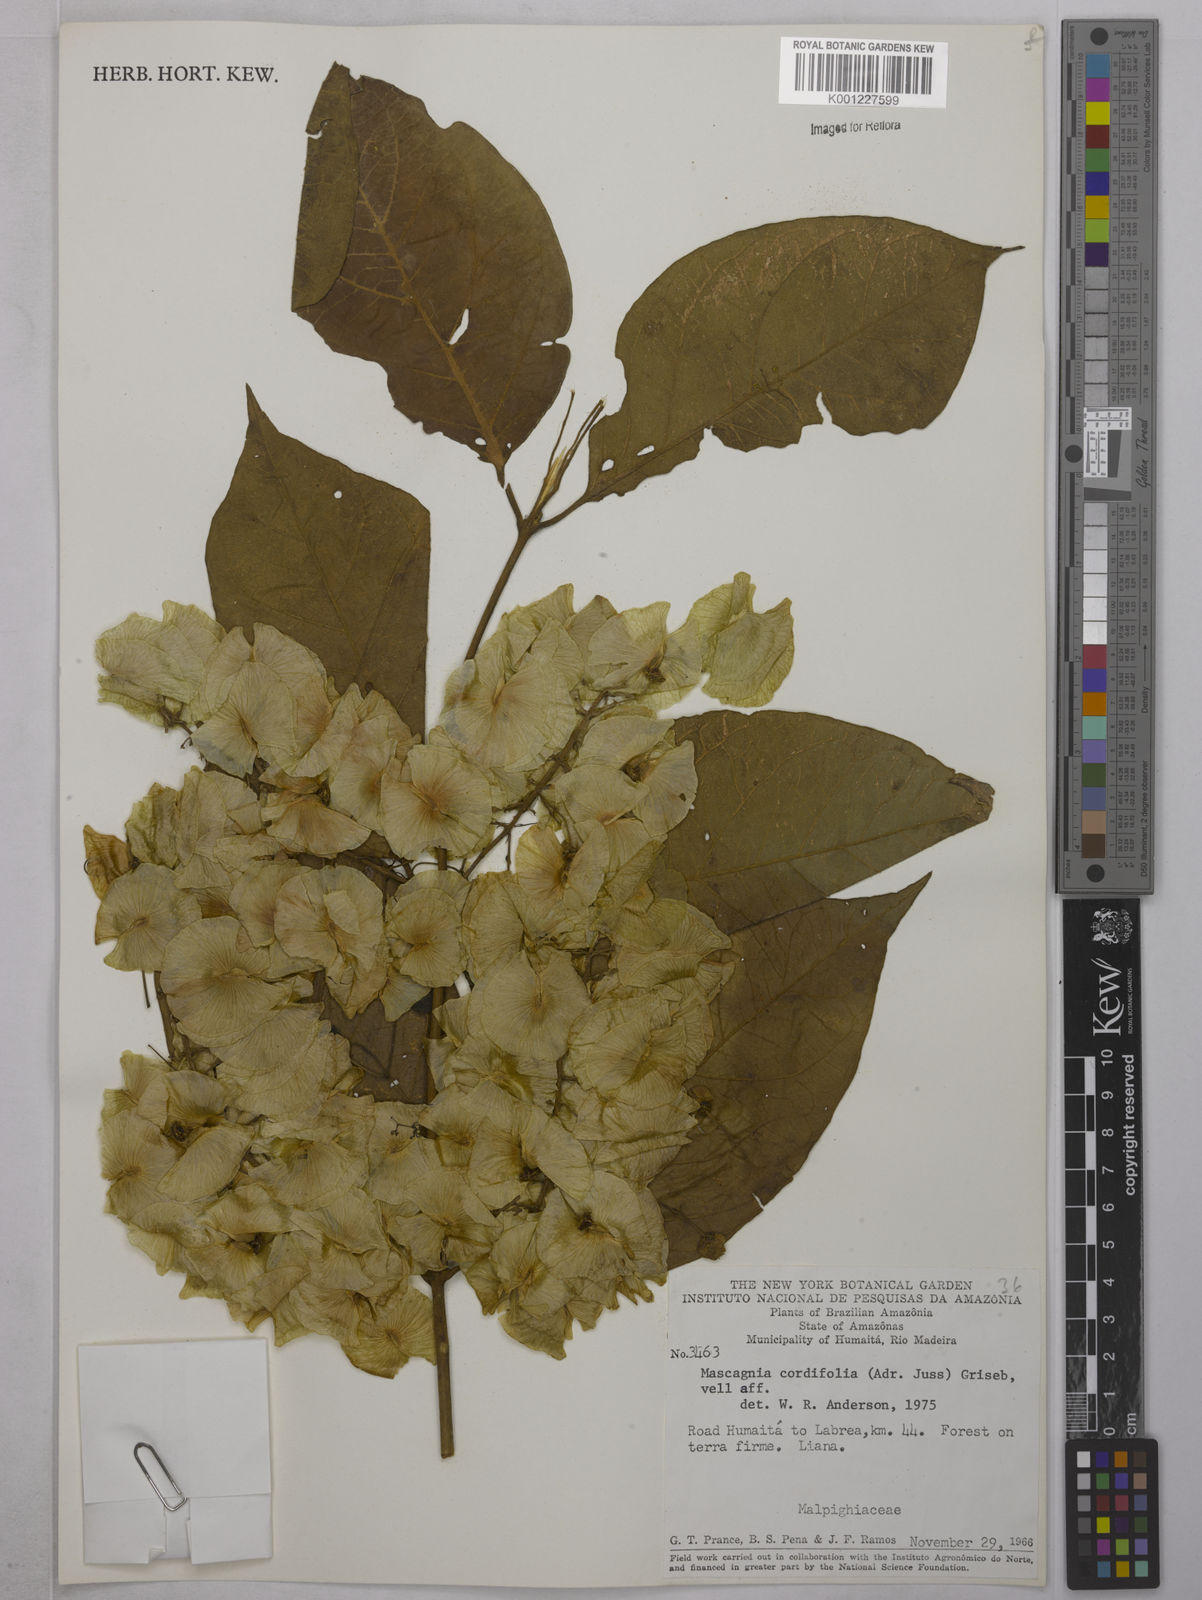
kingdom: Plantae
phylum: Tracheophyta
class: Magnoliopsida
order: Malpighiales
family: Malpighiaceae
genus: Mascagnia
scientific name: Mascagnia cordifolia
